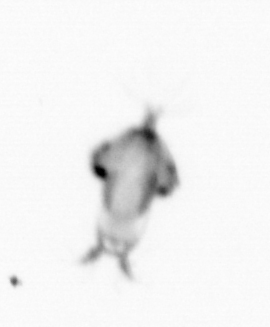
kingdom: Animalia
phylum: Arthropoda
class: Copepoda
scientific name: Copepoda
